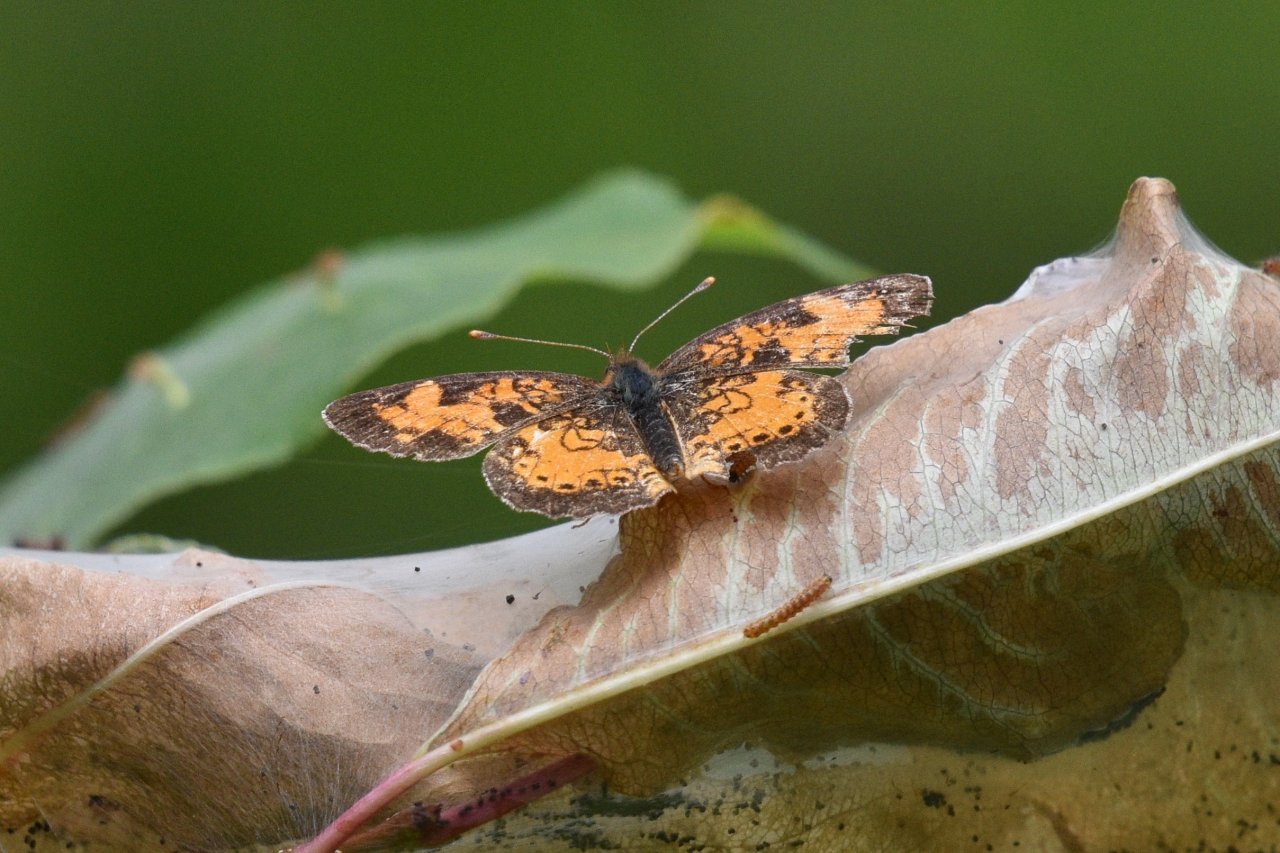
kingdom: Animalia
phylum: Arthropoda
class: Insecta
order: Lepidoptera
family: Nymphalidae
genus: Phyciodes
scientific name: Phyciodes tharos
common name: Northern Crescent
